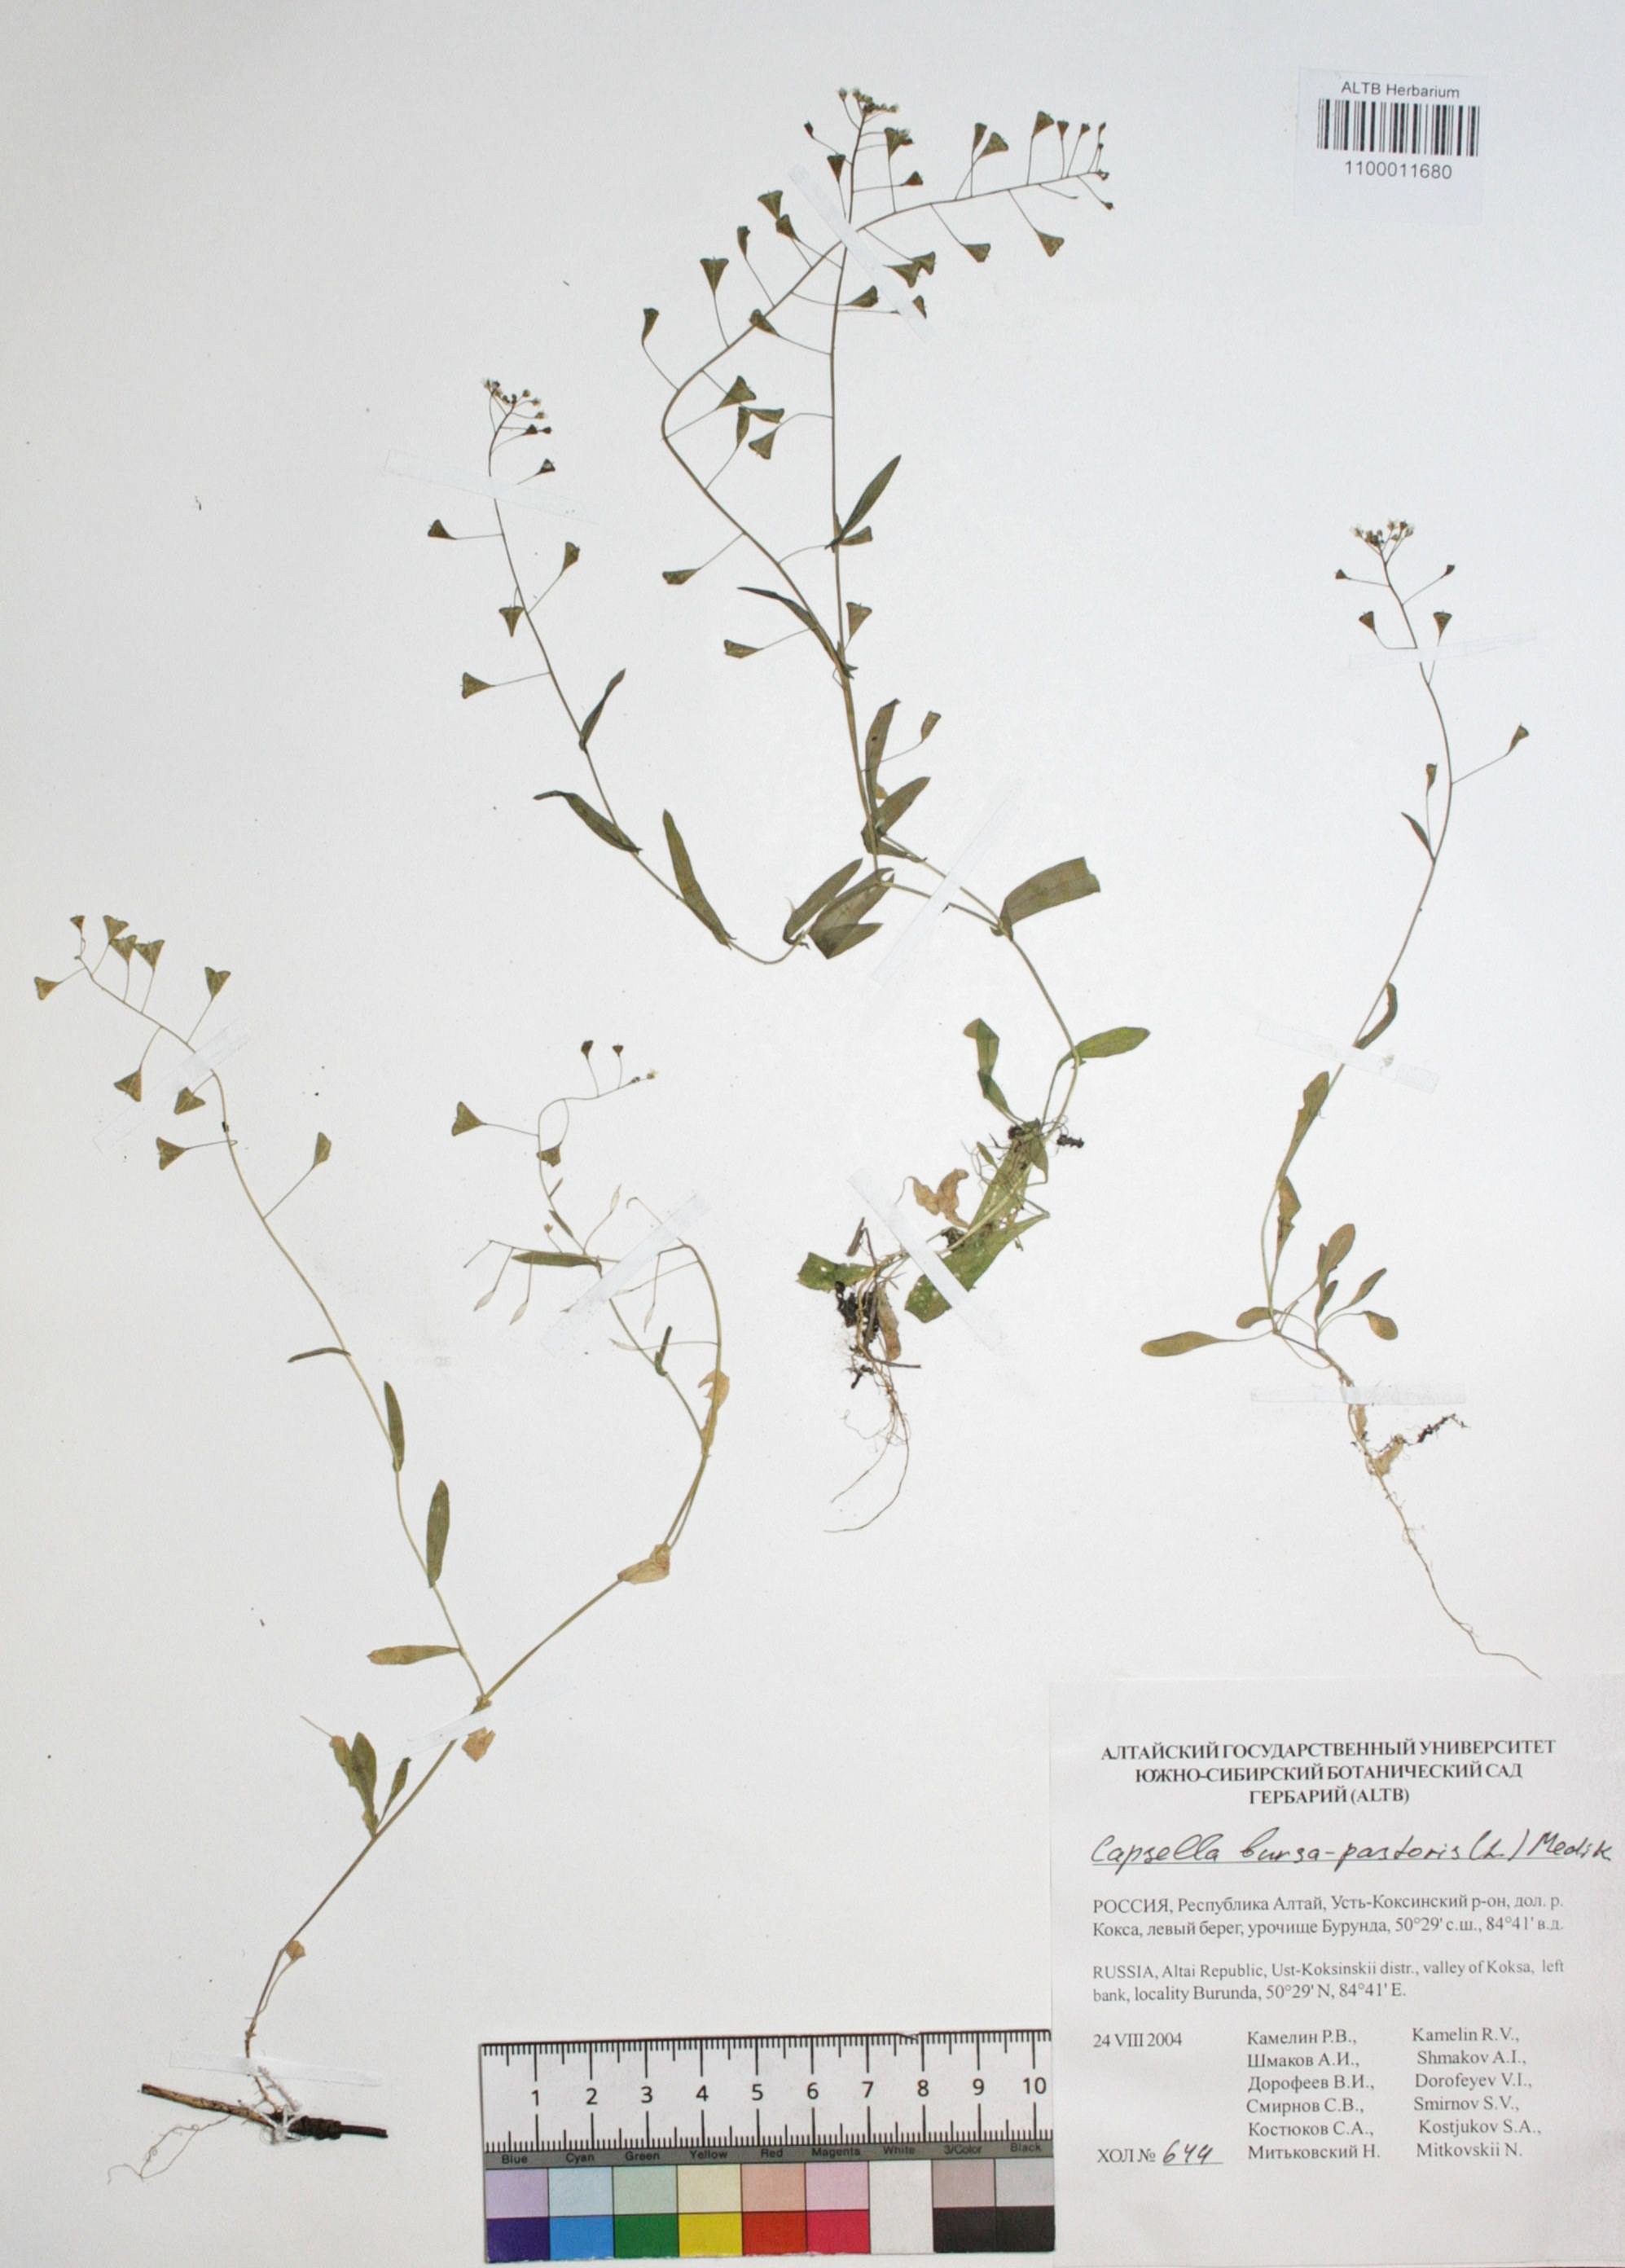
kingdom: Plantae
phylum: Tracheophyta
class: Magnoliopsida
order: Brassicales
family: Brassicaceae
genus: Capsella
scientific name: Capsella bursa-pastoris
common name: Shepherd's purse
